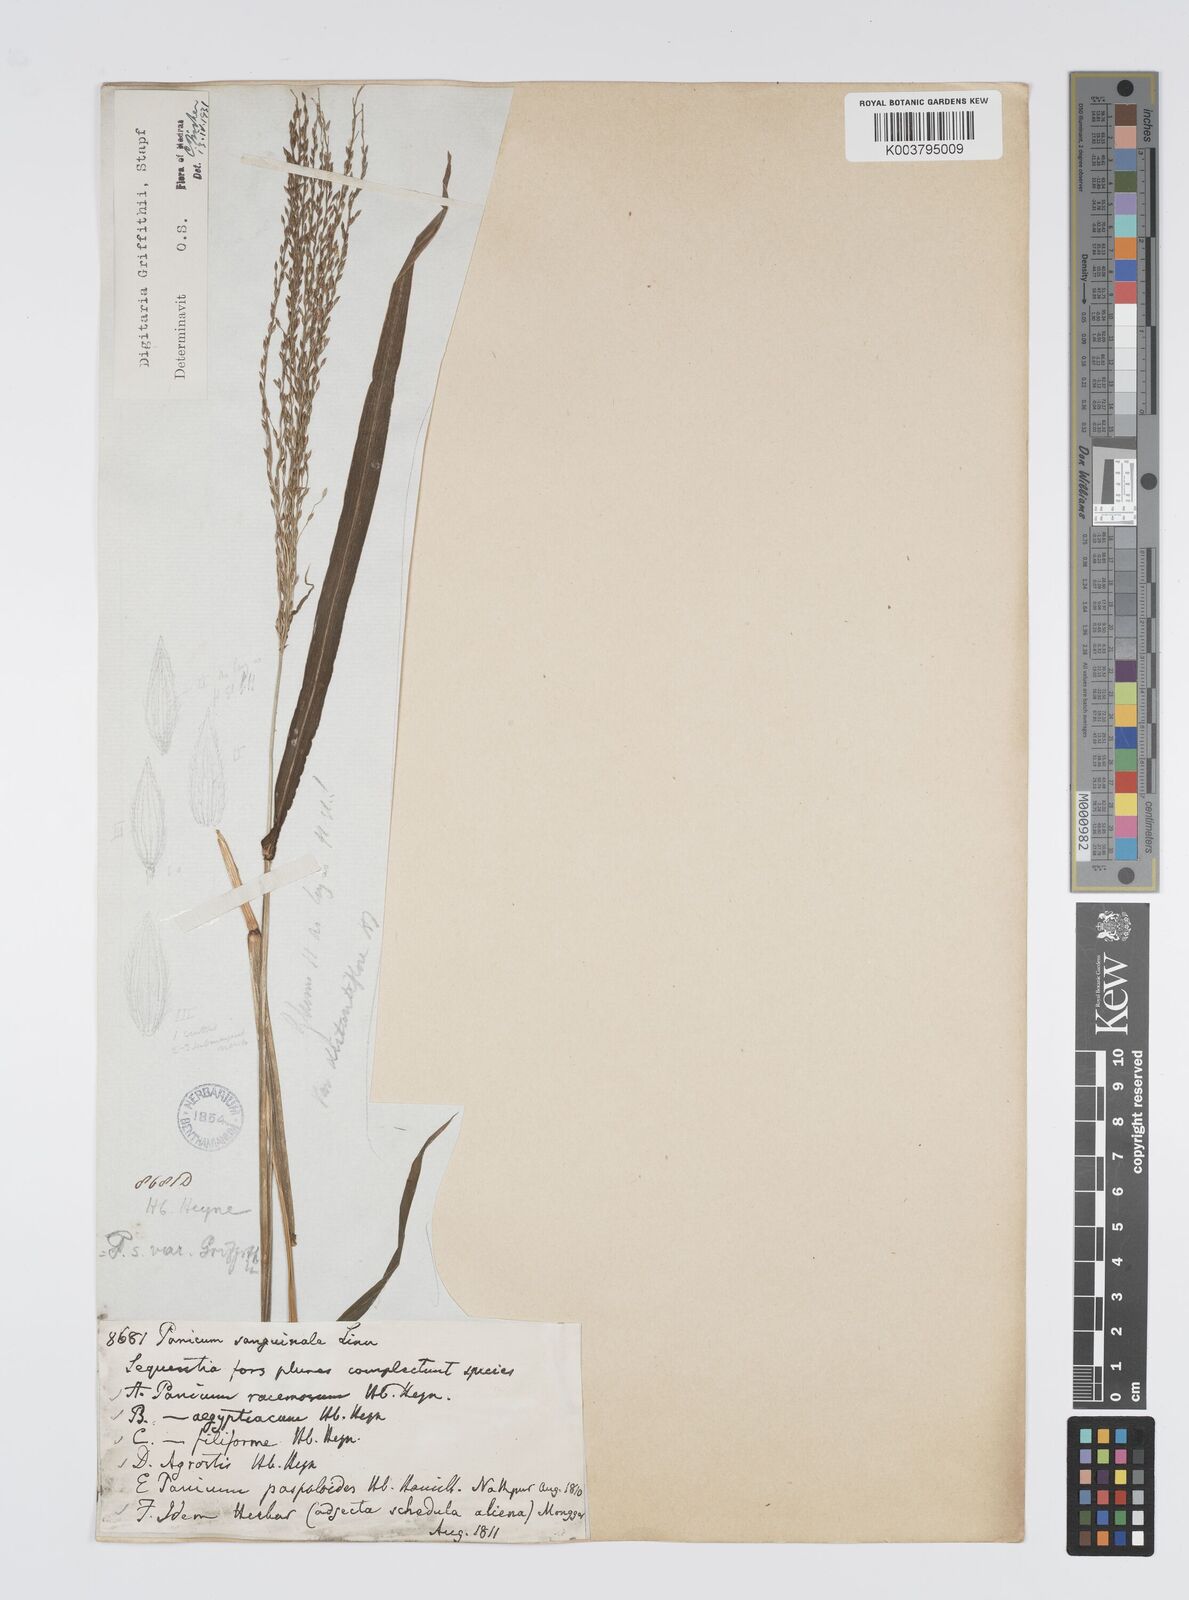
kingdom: Plantae
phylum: Tracheophyta
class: Liliopsida
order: Poales
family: Poaceae
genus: Digitaria
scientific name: Digitaria griffithii
